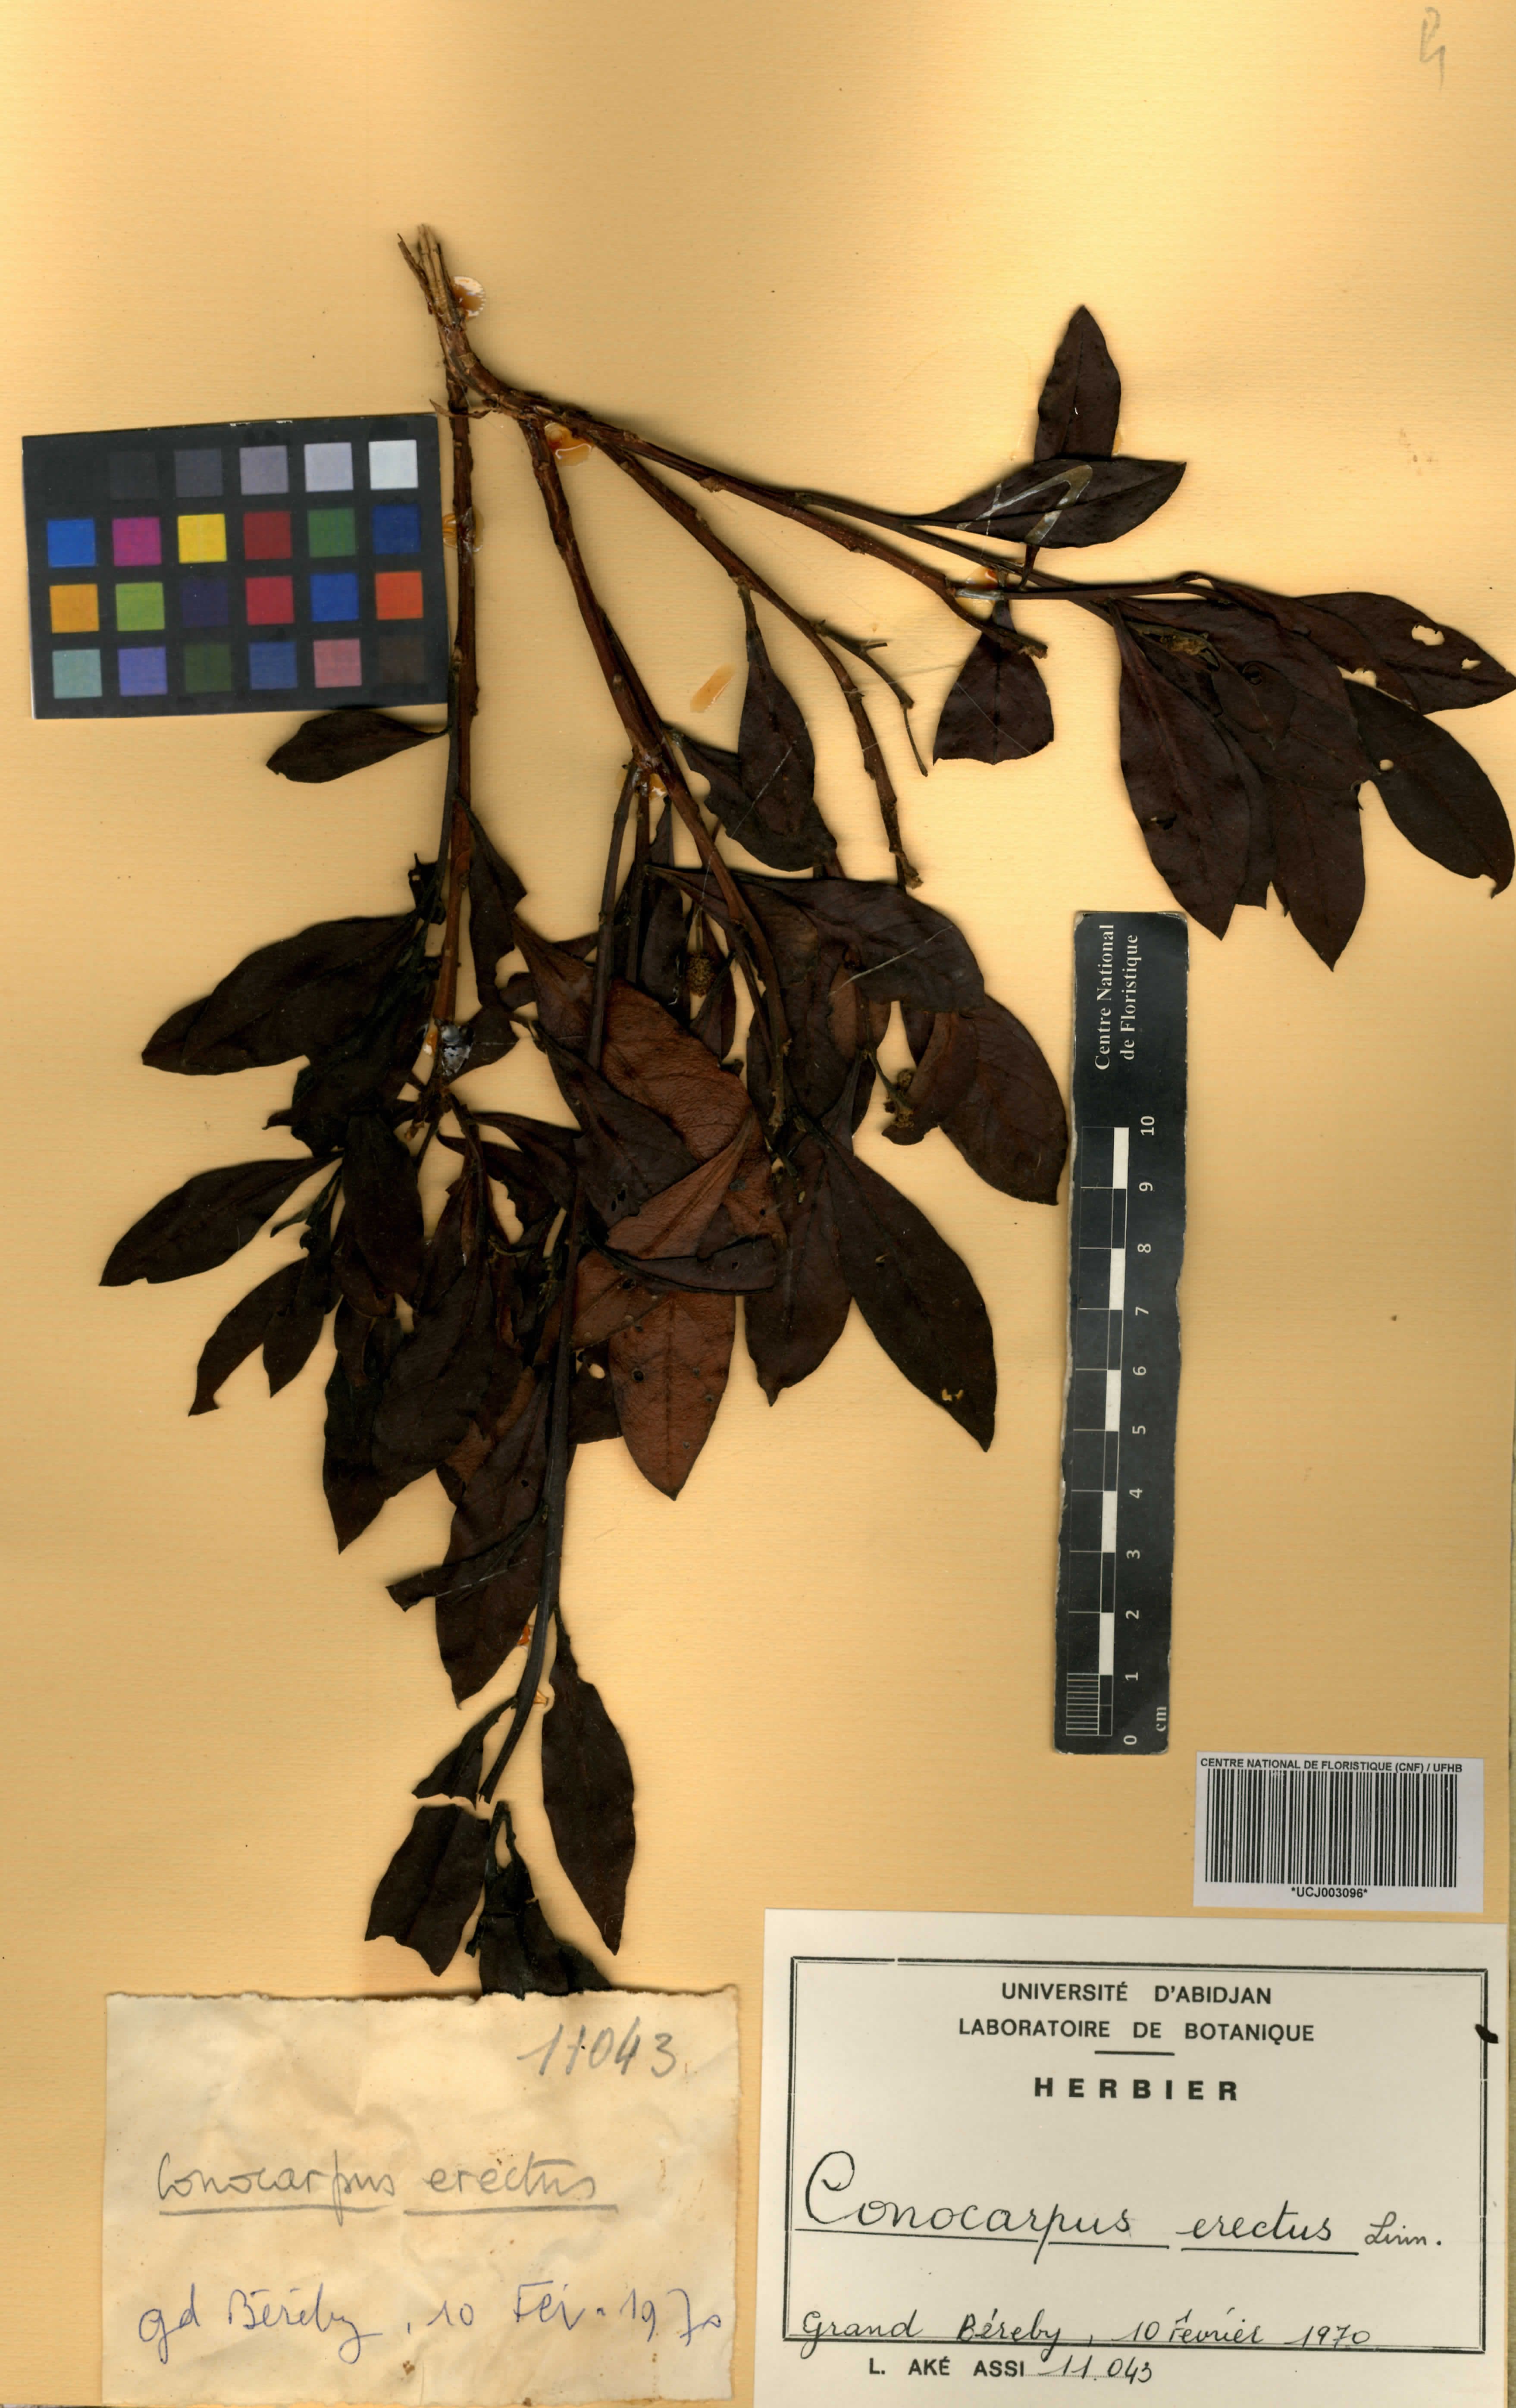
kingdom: Plantae
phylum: Tracheophyta
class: Magnoliopsida
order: Myrtales
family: Combretaceae
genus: Conocarpus
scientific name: Conocarpus erectus
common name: Button mangrove
